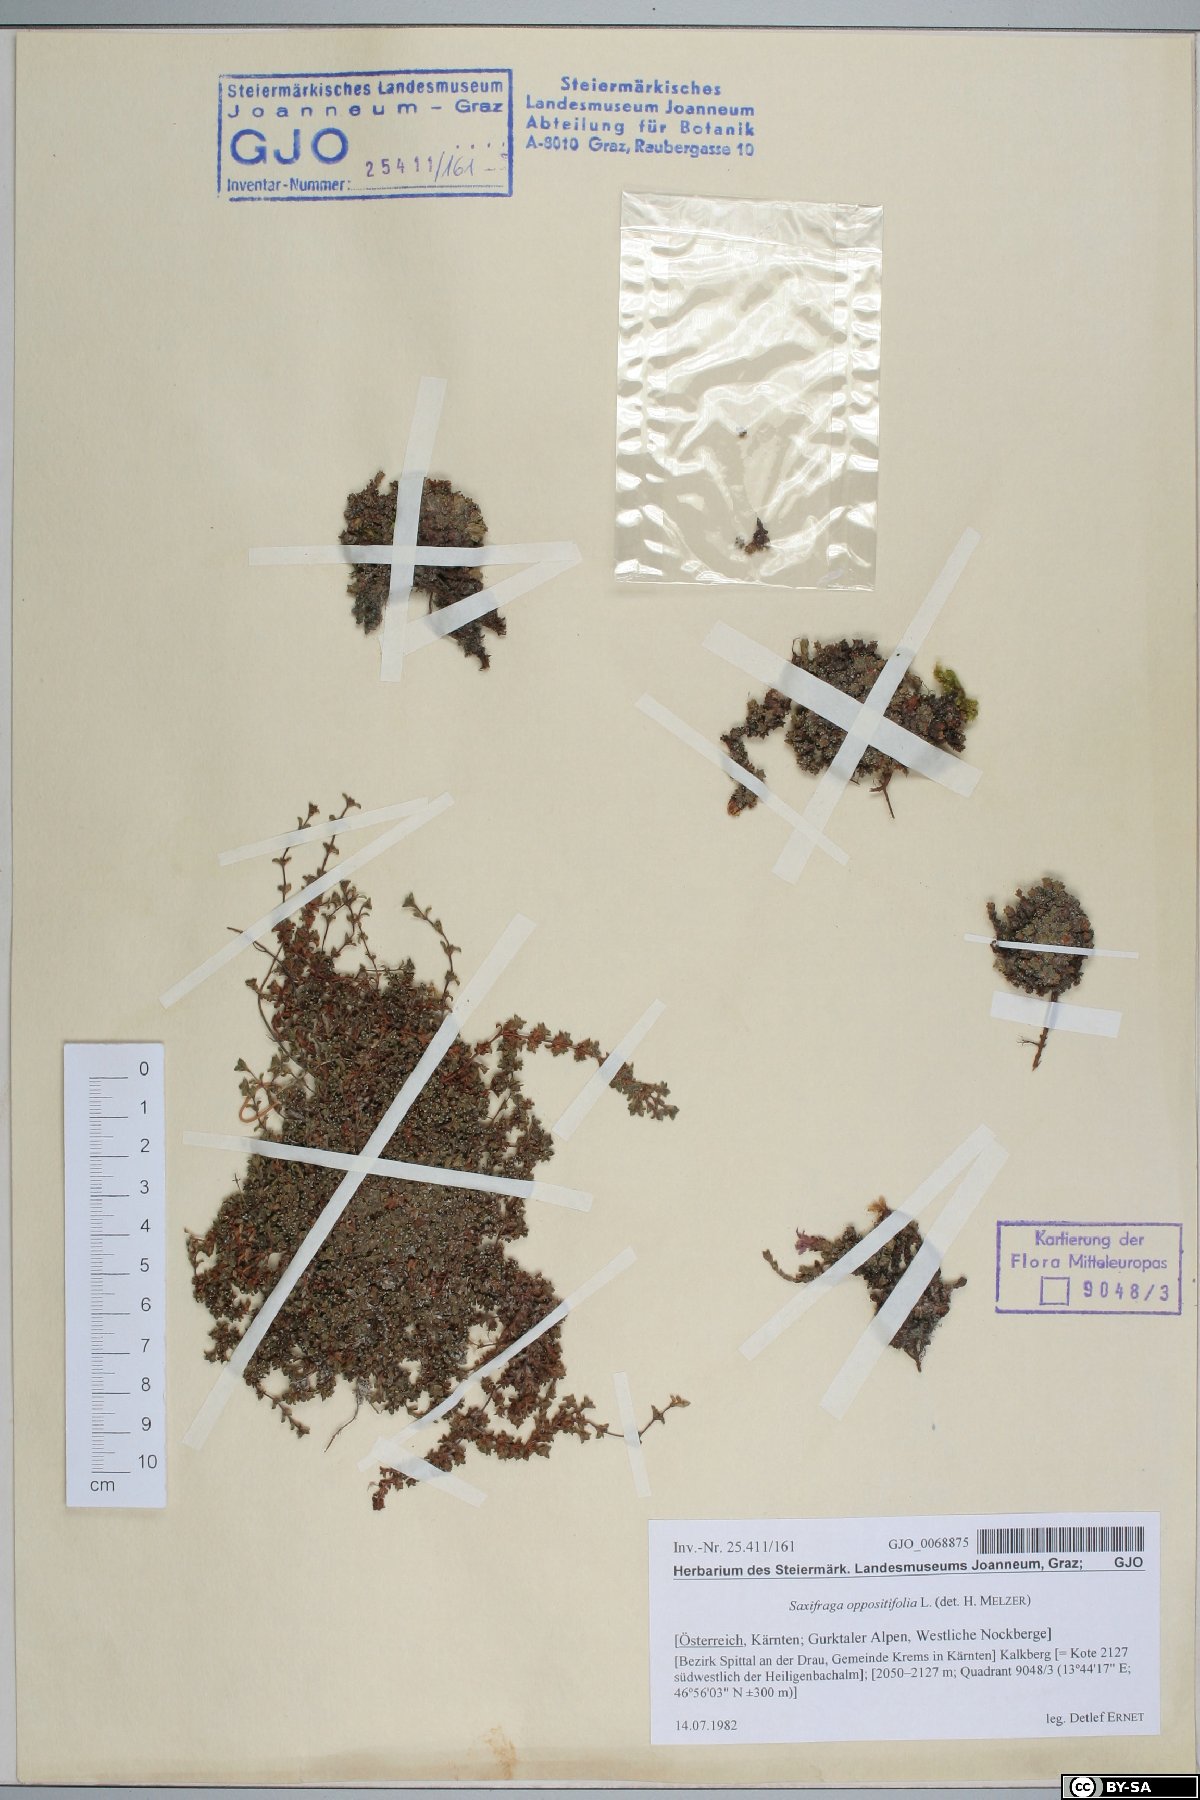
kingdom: Plantae
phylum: Tracheophyta
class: Magnoliopsida
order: Saxifragales
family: Saxifragaceae
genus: Saxifraga
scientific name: Saxifraga oppositifolia
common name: Purple saxifrage
